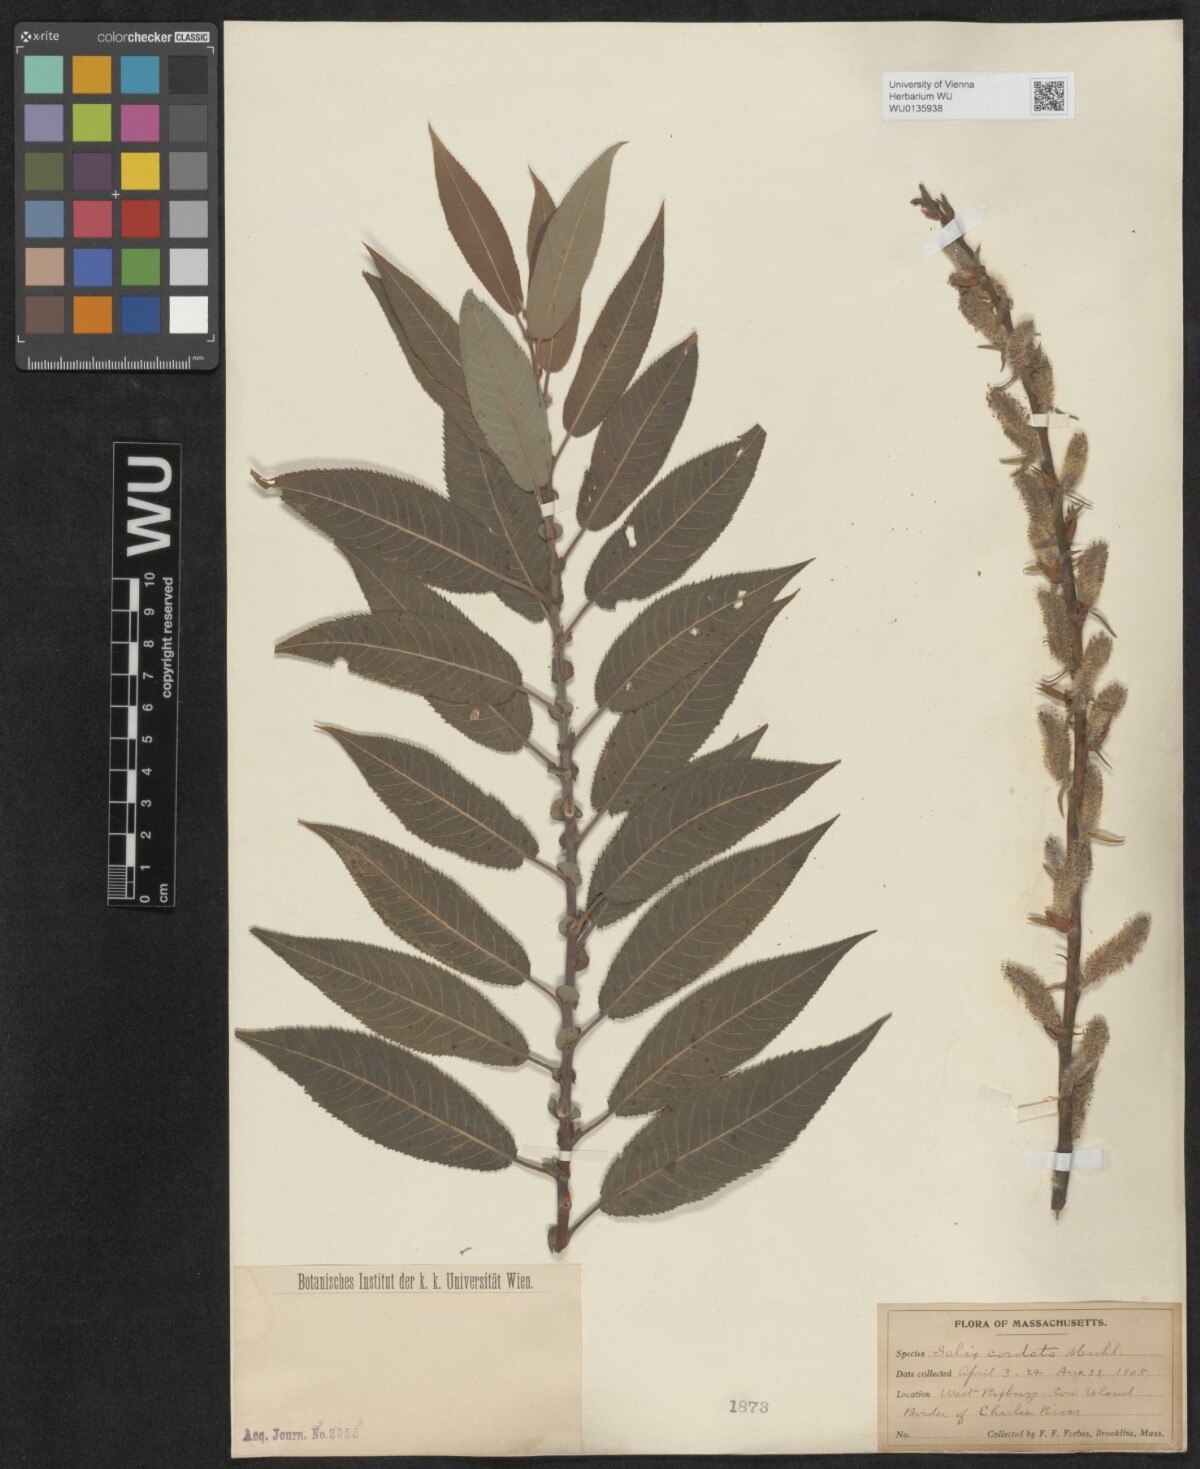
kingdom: Plantae
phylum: Tracheophyta
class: Magnoliopsida
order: Malpighiales
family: Salicaceae
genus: Salix
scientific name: Salix cordata
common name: Heart-leaf willow
